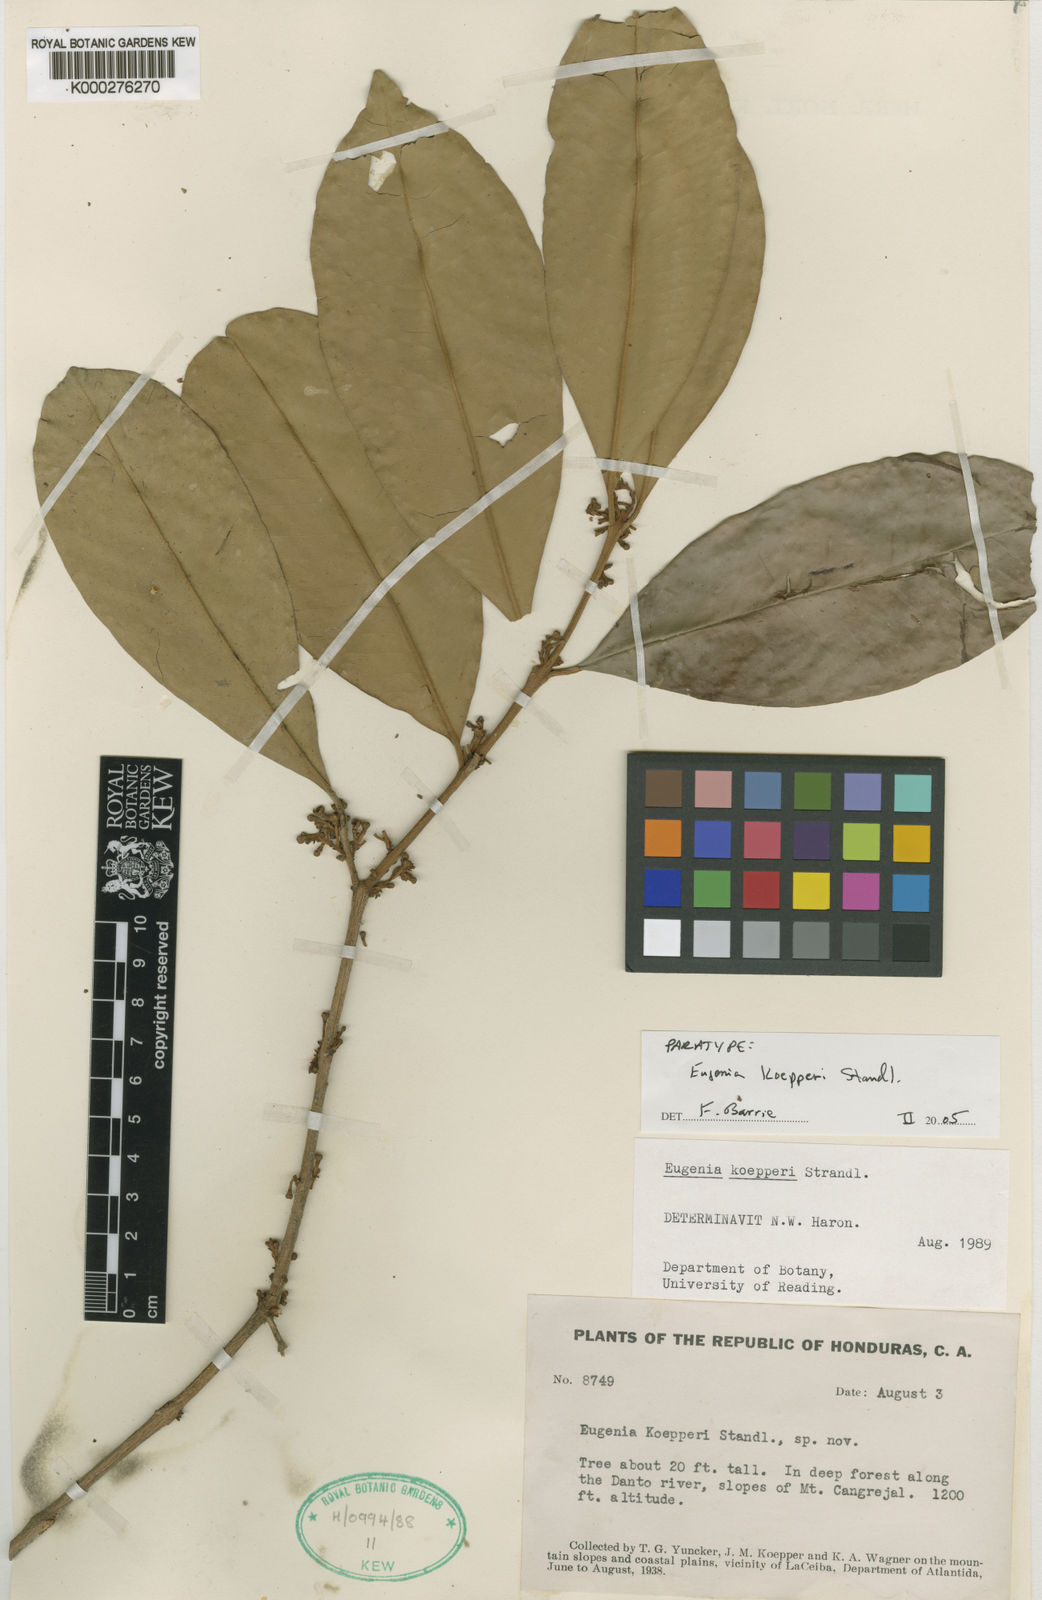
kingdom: Plantae
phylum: Tracheophyta
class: Magnoliopsida
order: Myrtales
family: Myrtaceae
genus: Eugenia
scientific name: Eugenia koepperi
